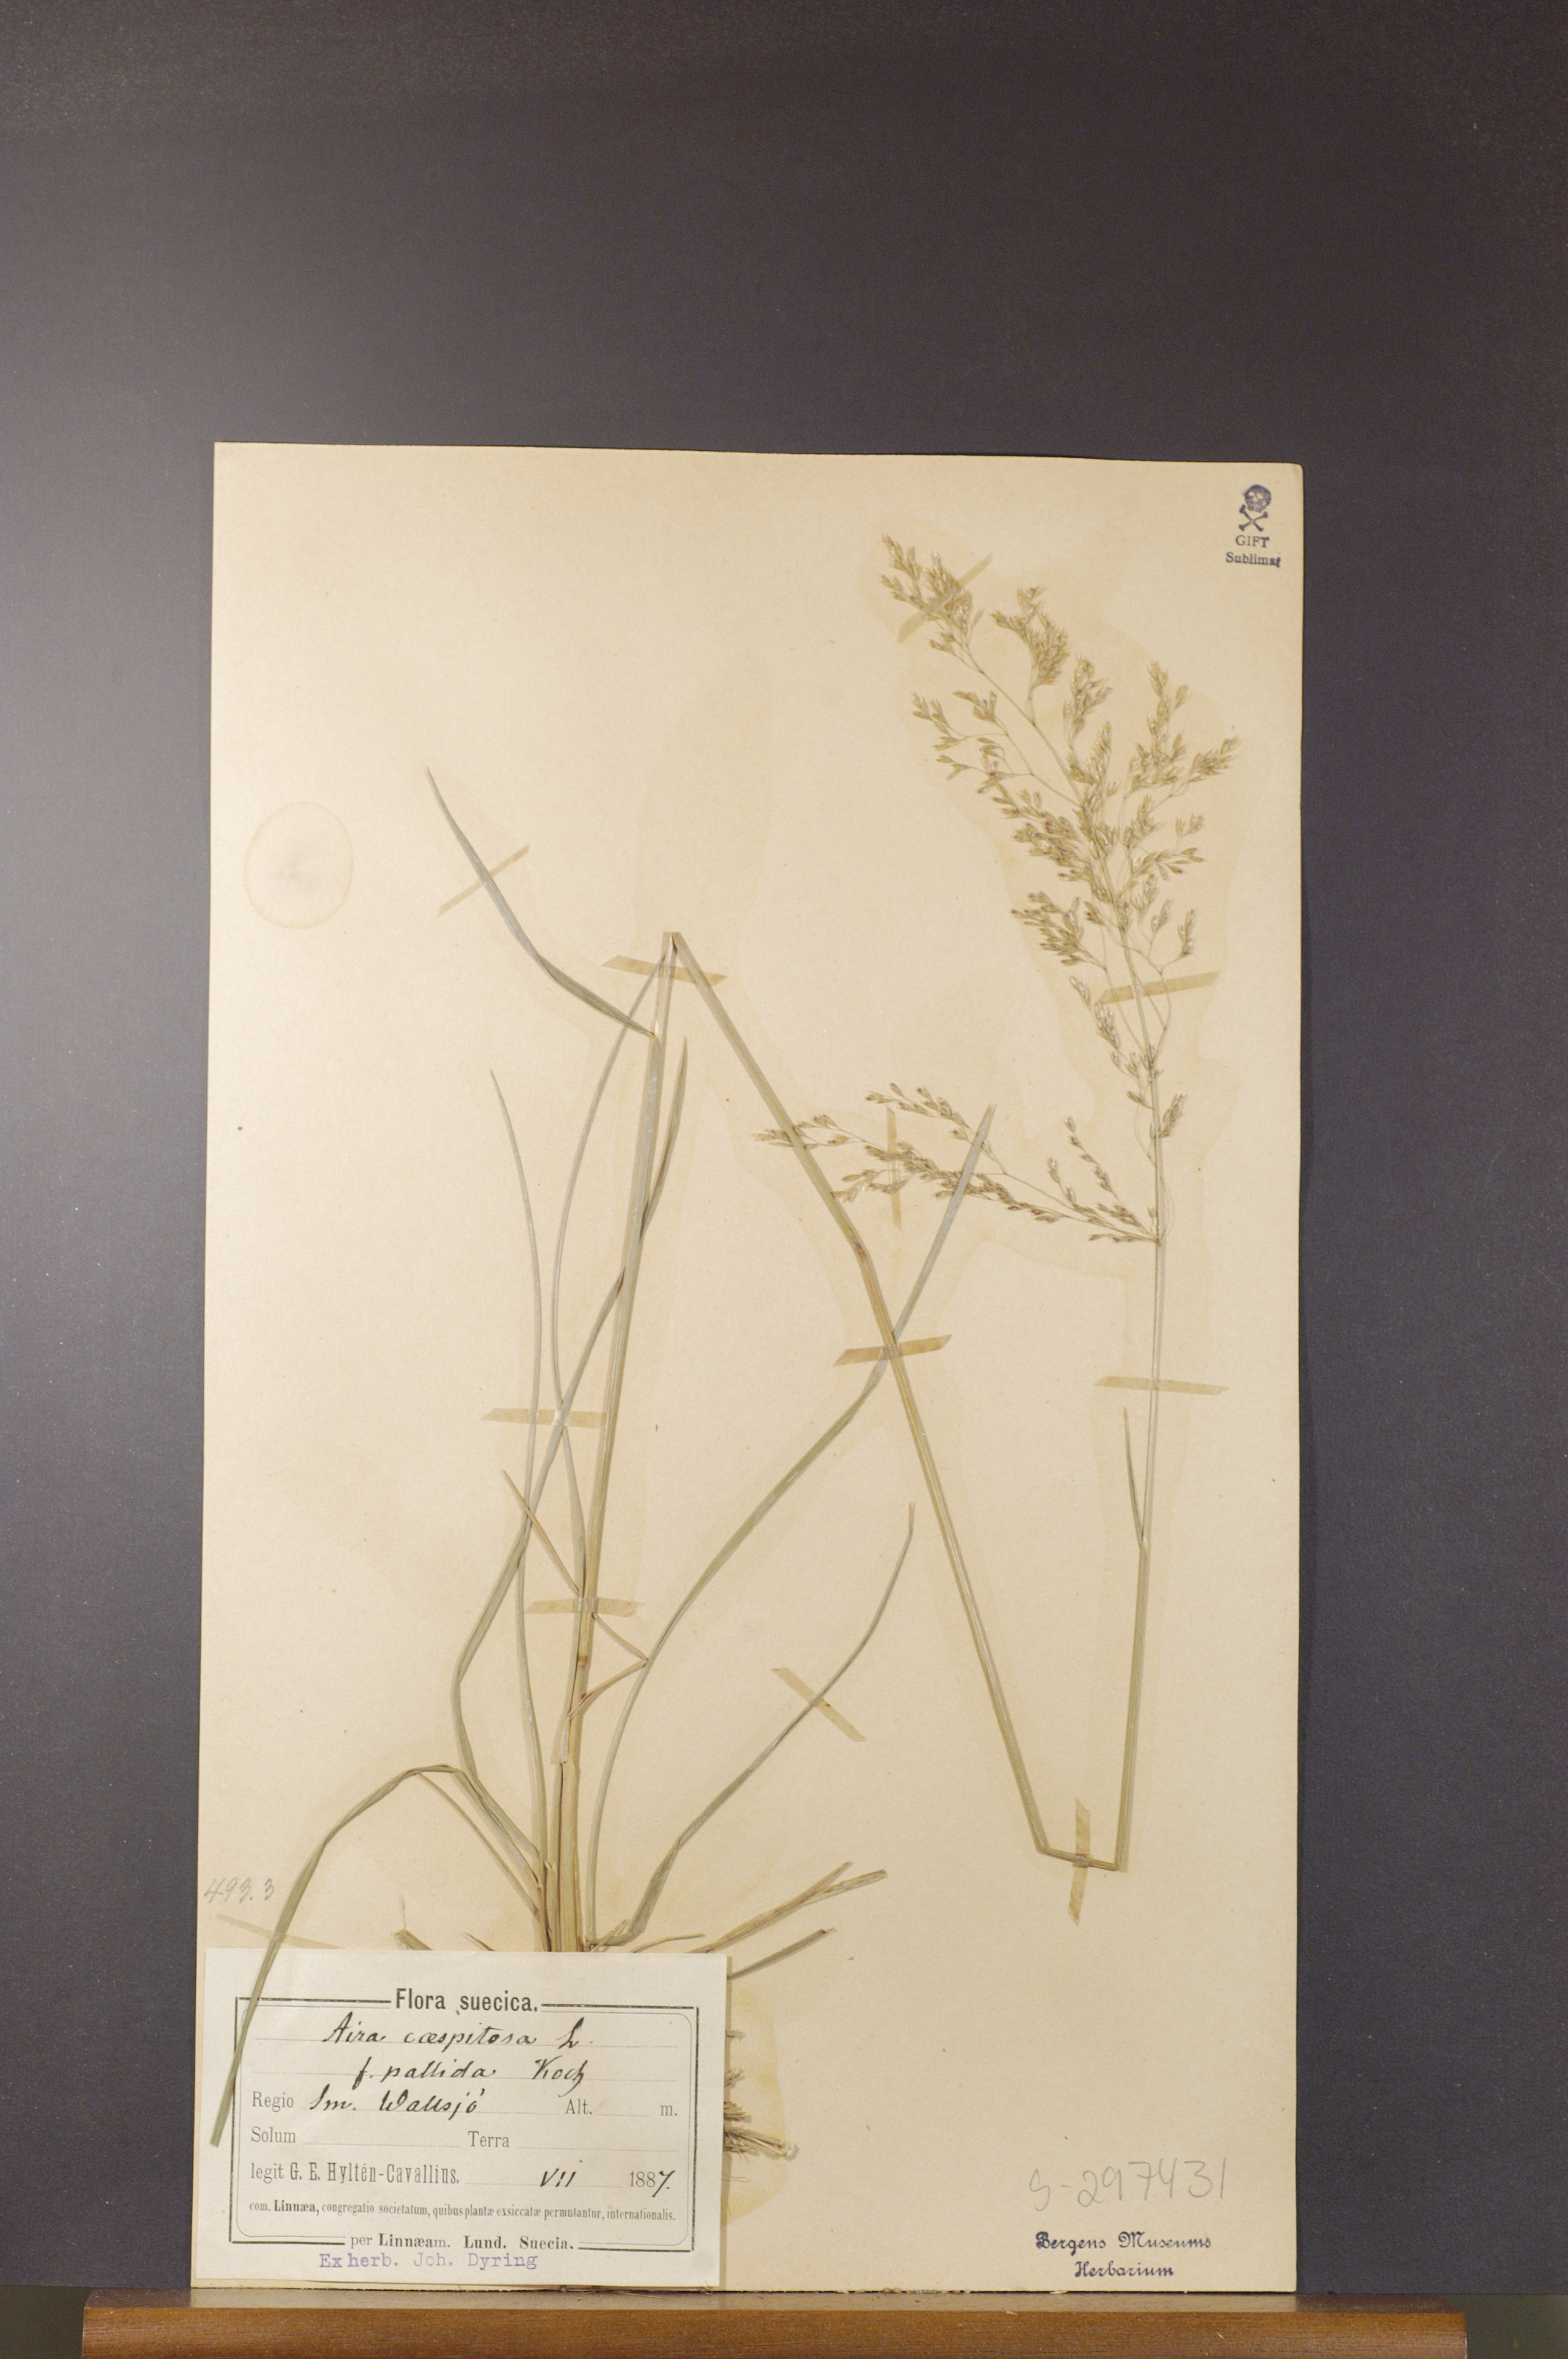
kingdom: Plantae
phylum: Tracheophyta
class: Liliopsida
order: Poales
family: Poaceae
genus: Deschampsia
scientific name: Deschampsia cespitosa
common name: Tufted hair-grass
